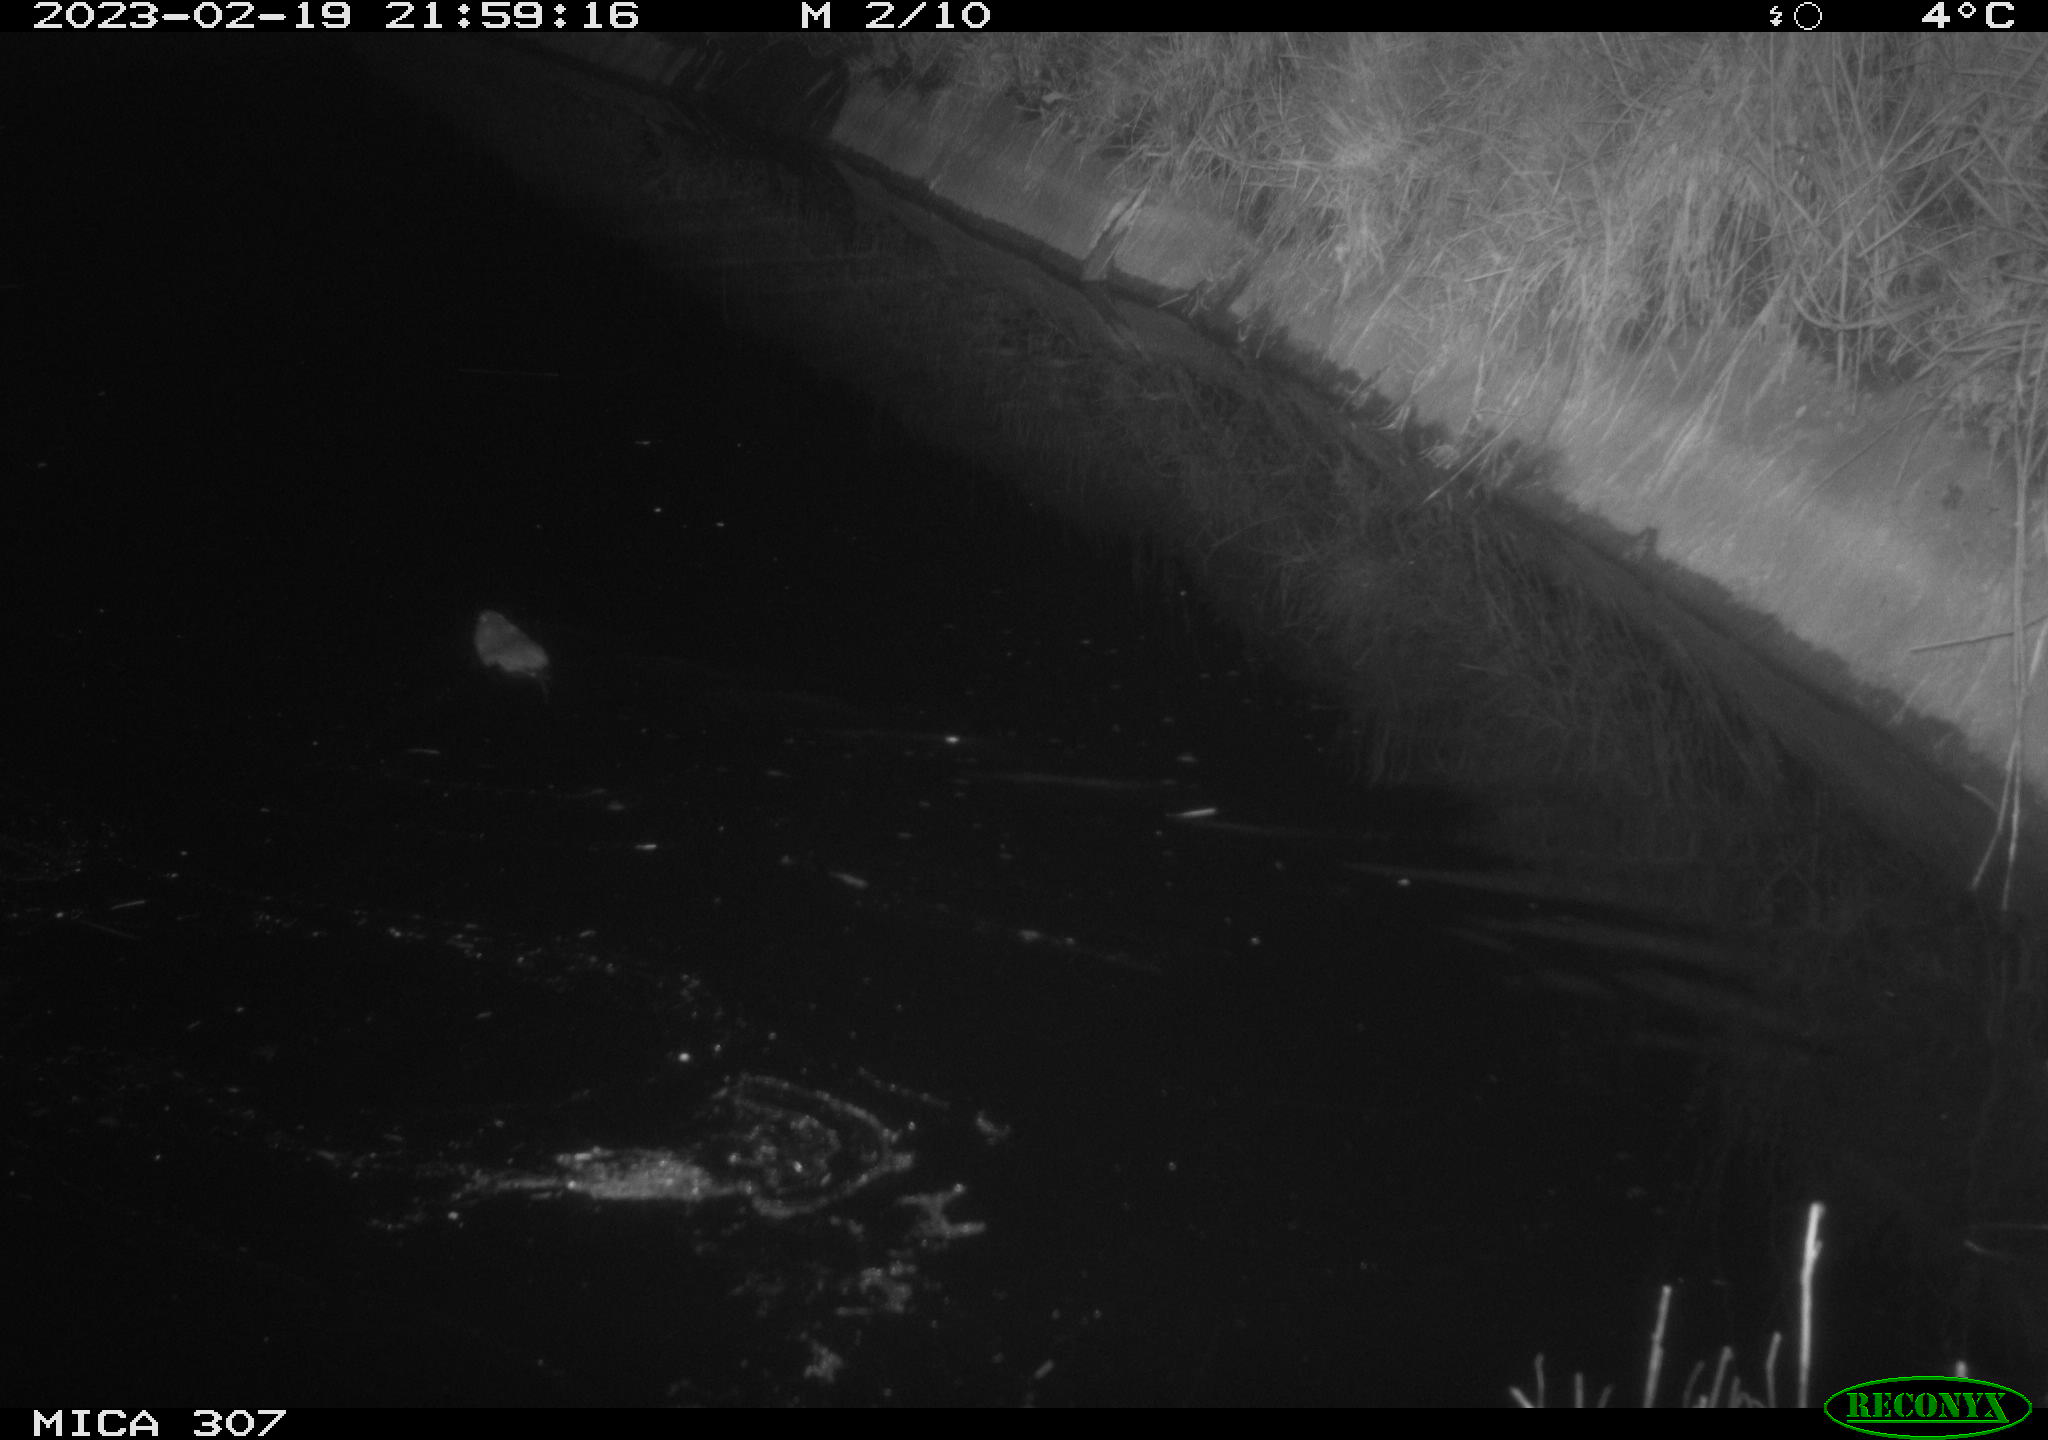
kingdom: Animalia
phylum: Chordata
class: Mammalia
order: Rodentia
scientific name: Rodentia
